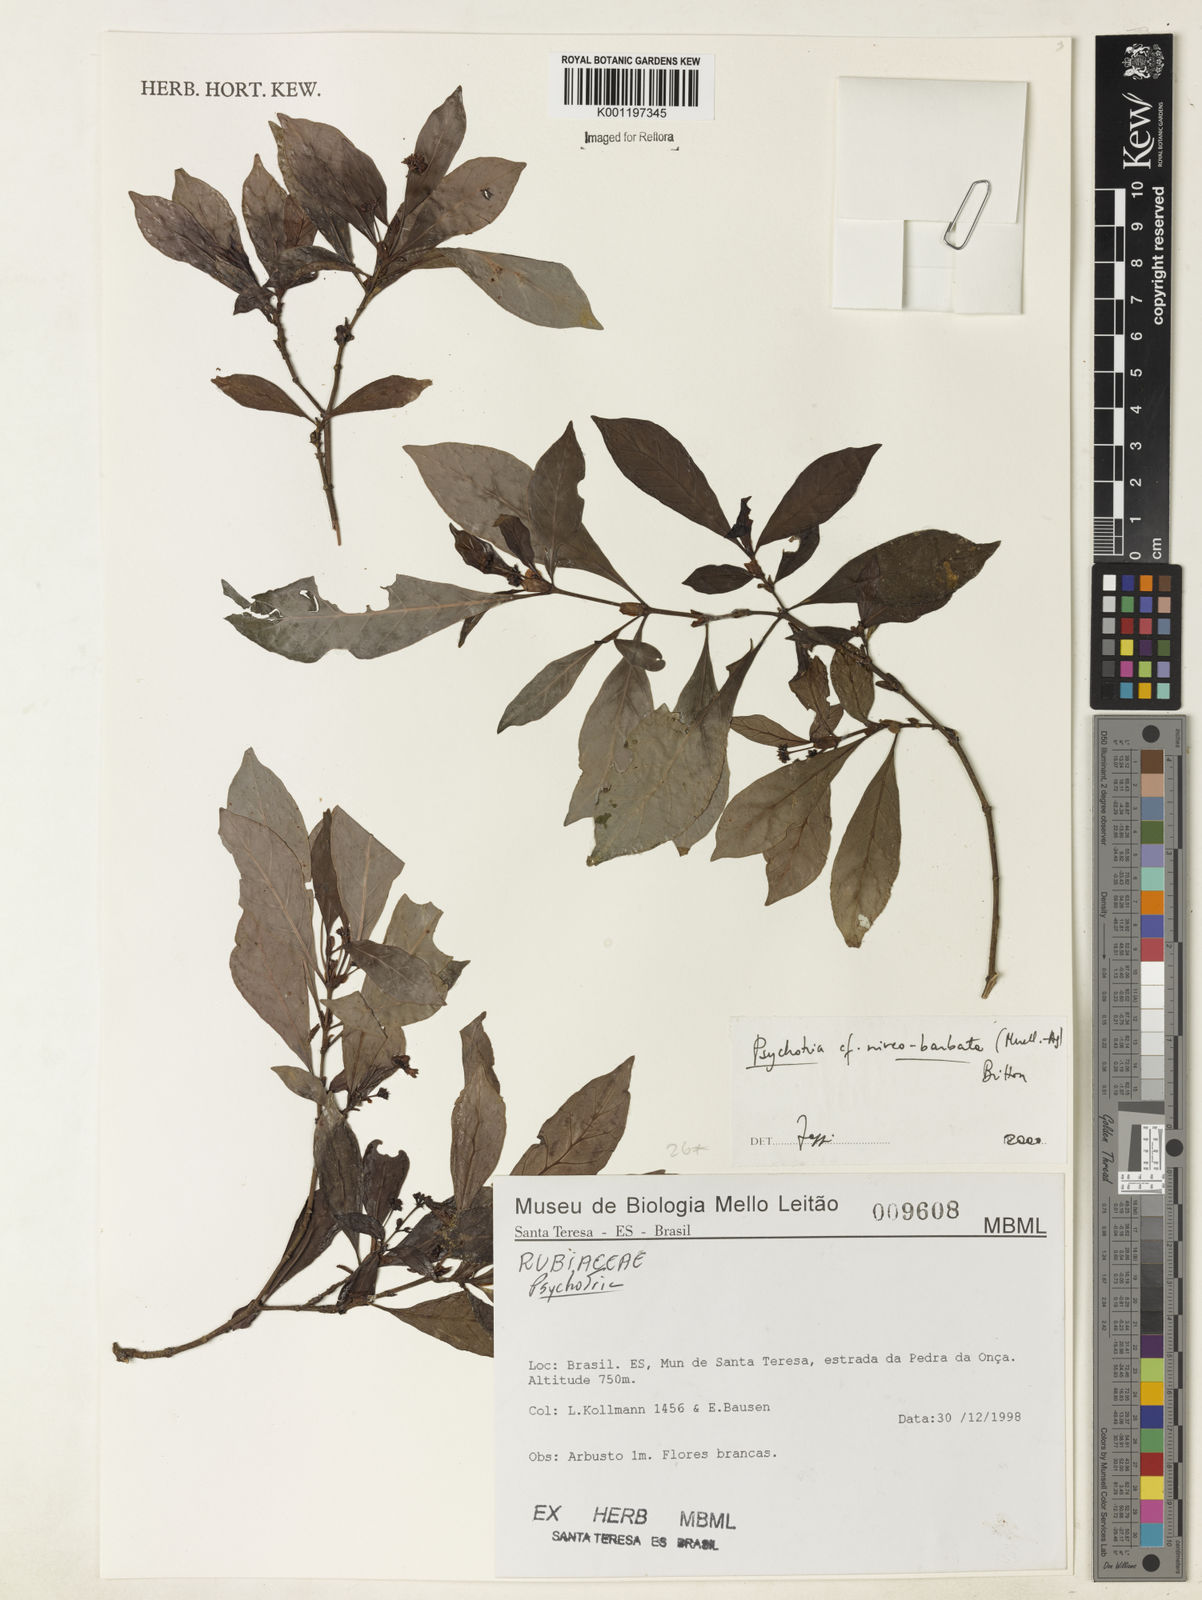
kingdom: Plantae
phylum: Tracheophyta
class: Magnoliopsida
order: Gentianales
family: Rubiaceae
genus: Psychotria
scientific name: Psychotria
